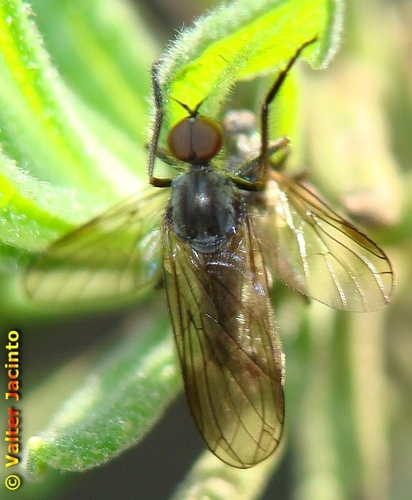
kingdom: Animalia
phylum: Arthropoda
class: Insecta
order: Diptera
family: Empididae
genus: Empis
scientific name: Empis
